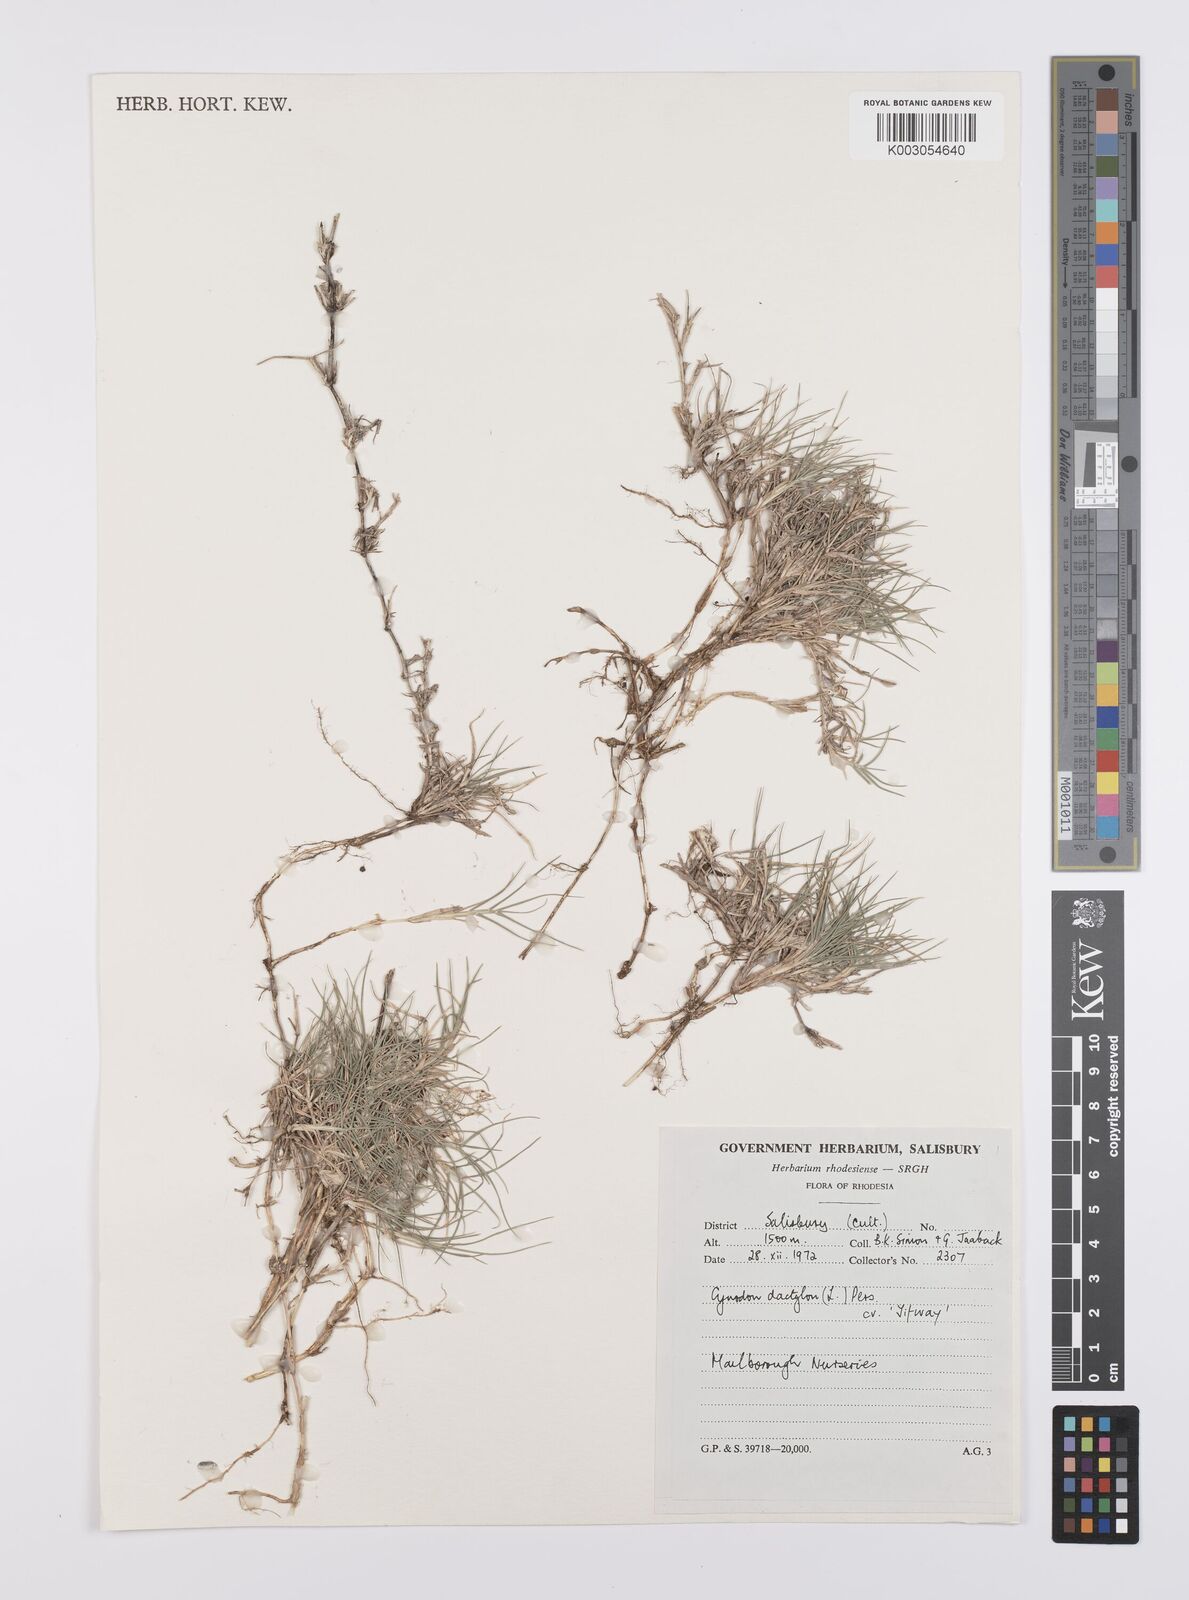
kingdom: Plantae
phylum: Tracheophyta
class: Liliopsida
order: Poales
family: Poaceae
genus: Cynodon
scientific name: Cynodon dactylon
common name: Bermuda grass
